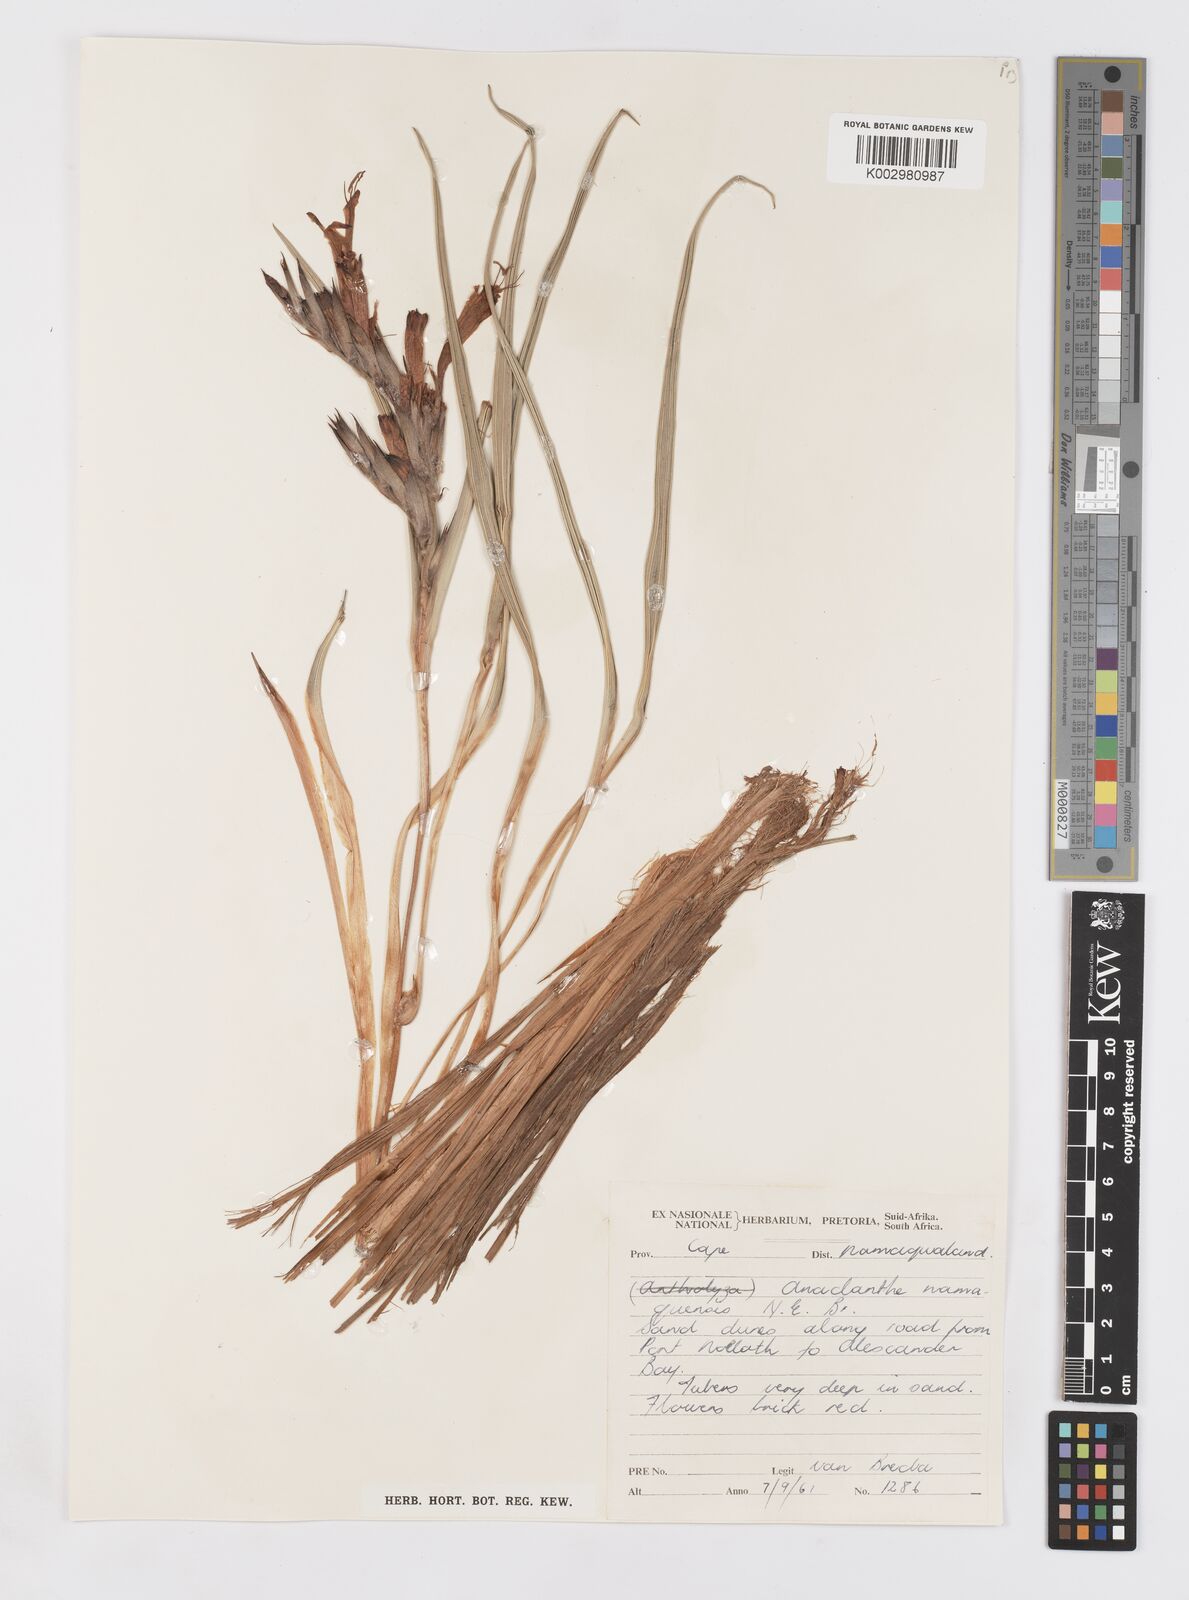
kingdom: Plantae
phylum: Tracheophyta
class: Liliopsida
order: Asparagales
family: Iridaceae
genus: Babiana
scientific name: Babiana
